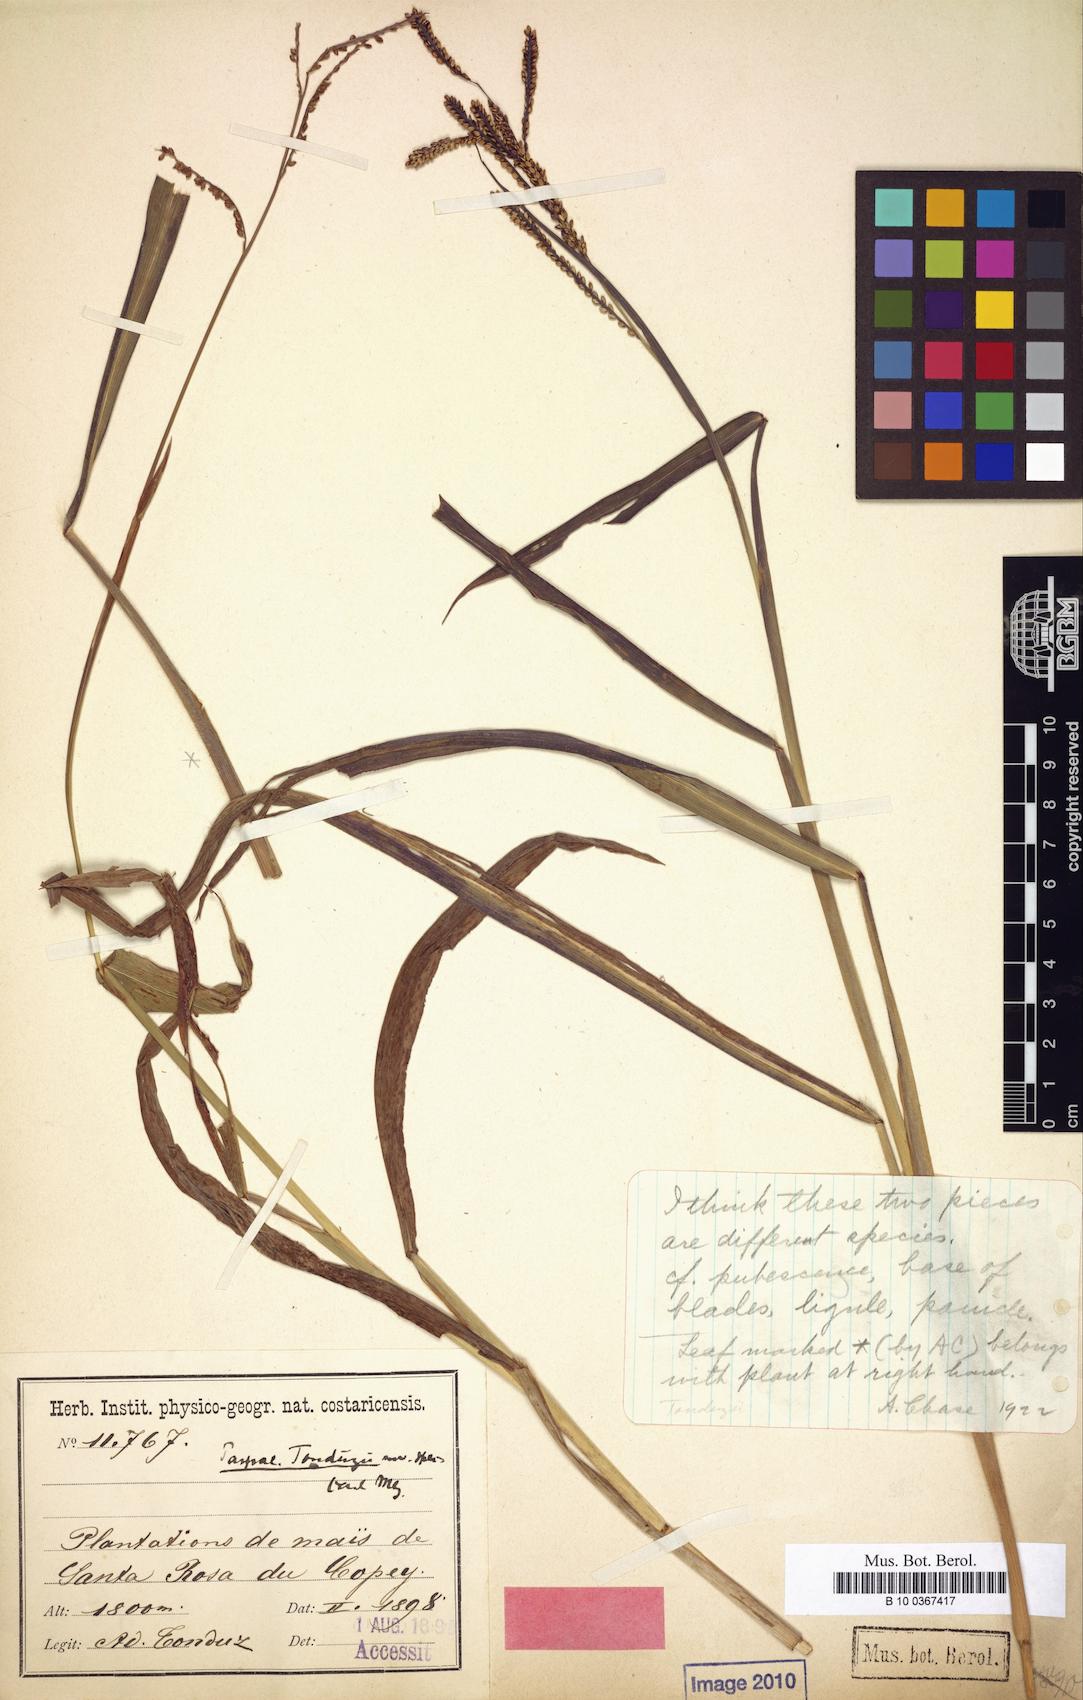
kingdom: Plantae
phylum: Tracheophyta
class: Liliopsida
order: Poales
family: Poaceae
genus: Paspalum
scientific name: Paspalum jaliscanum
